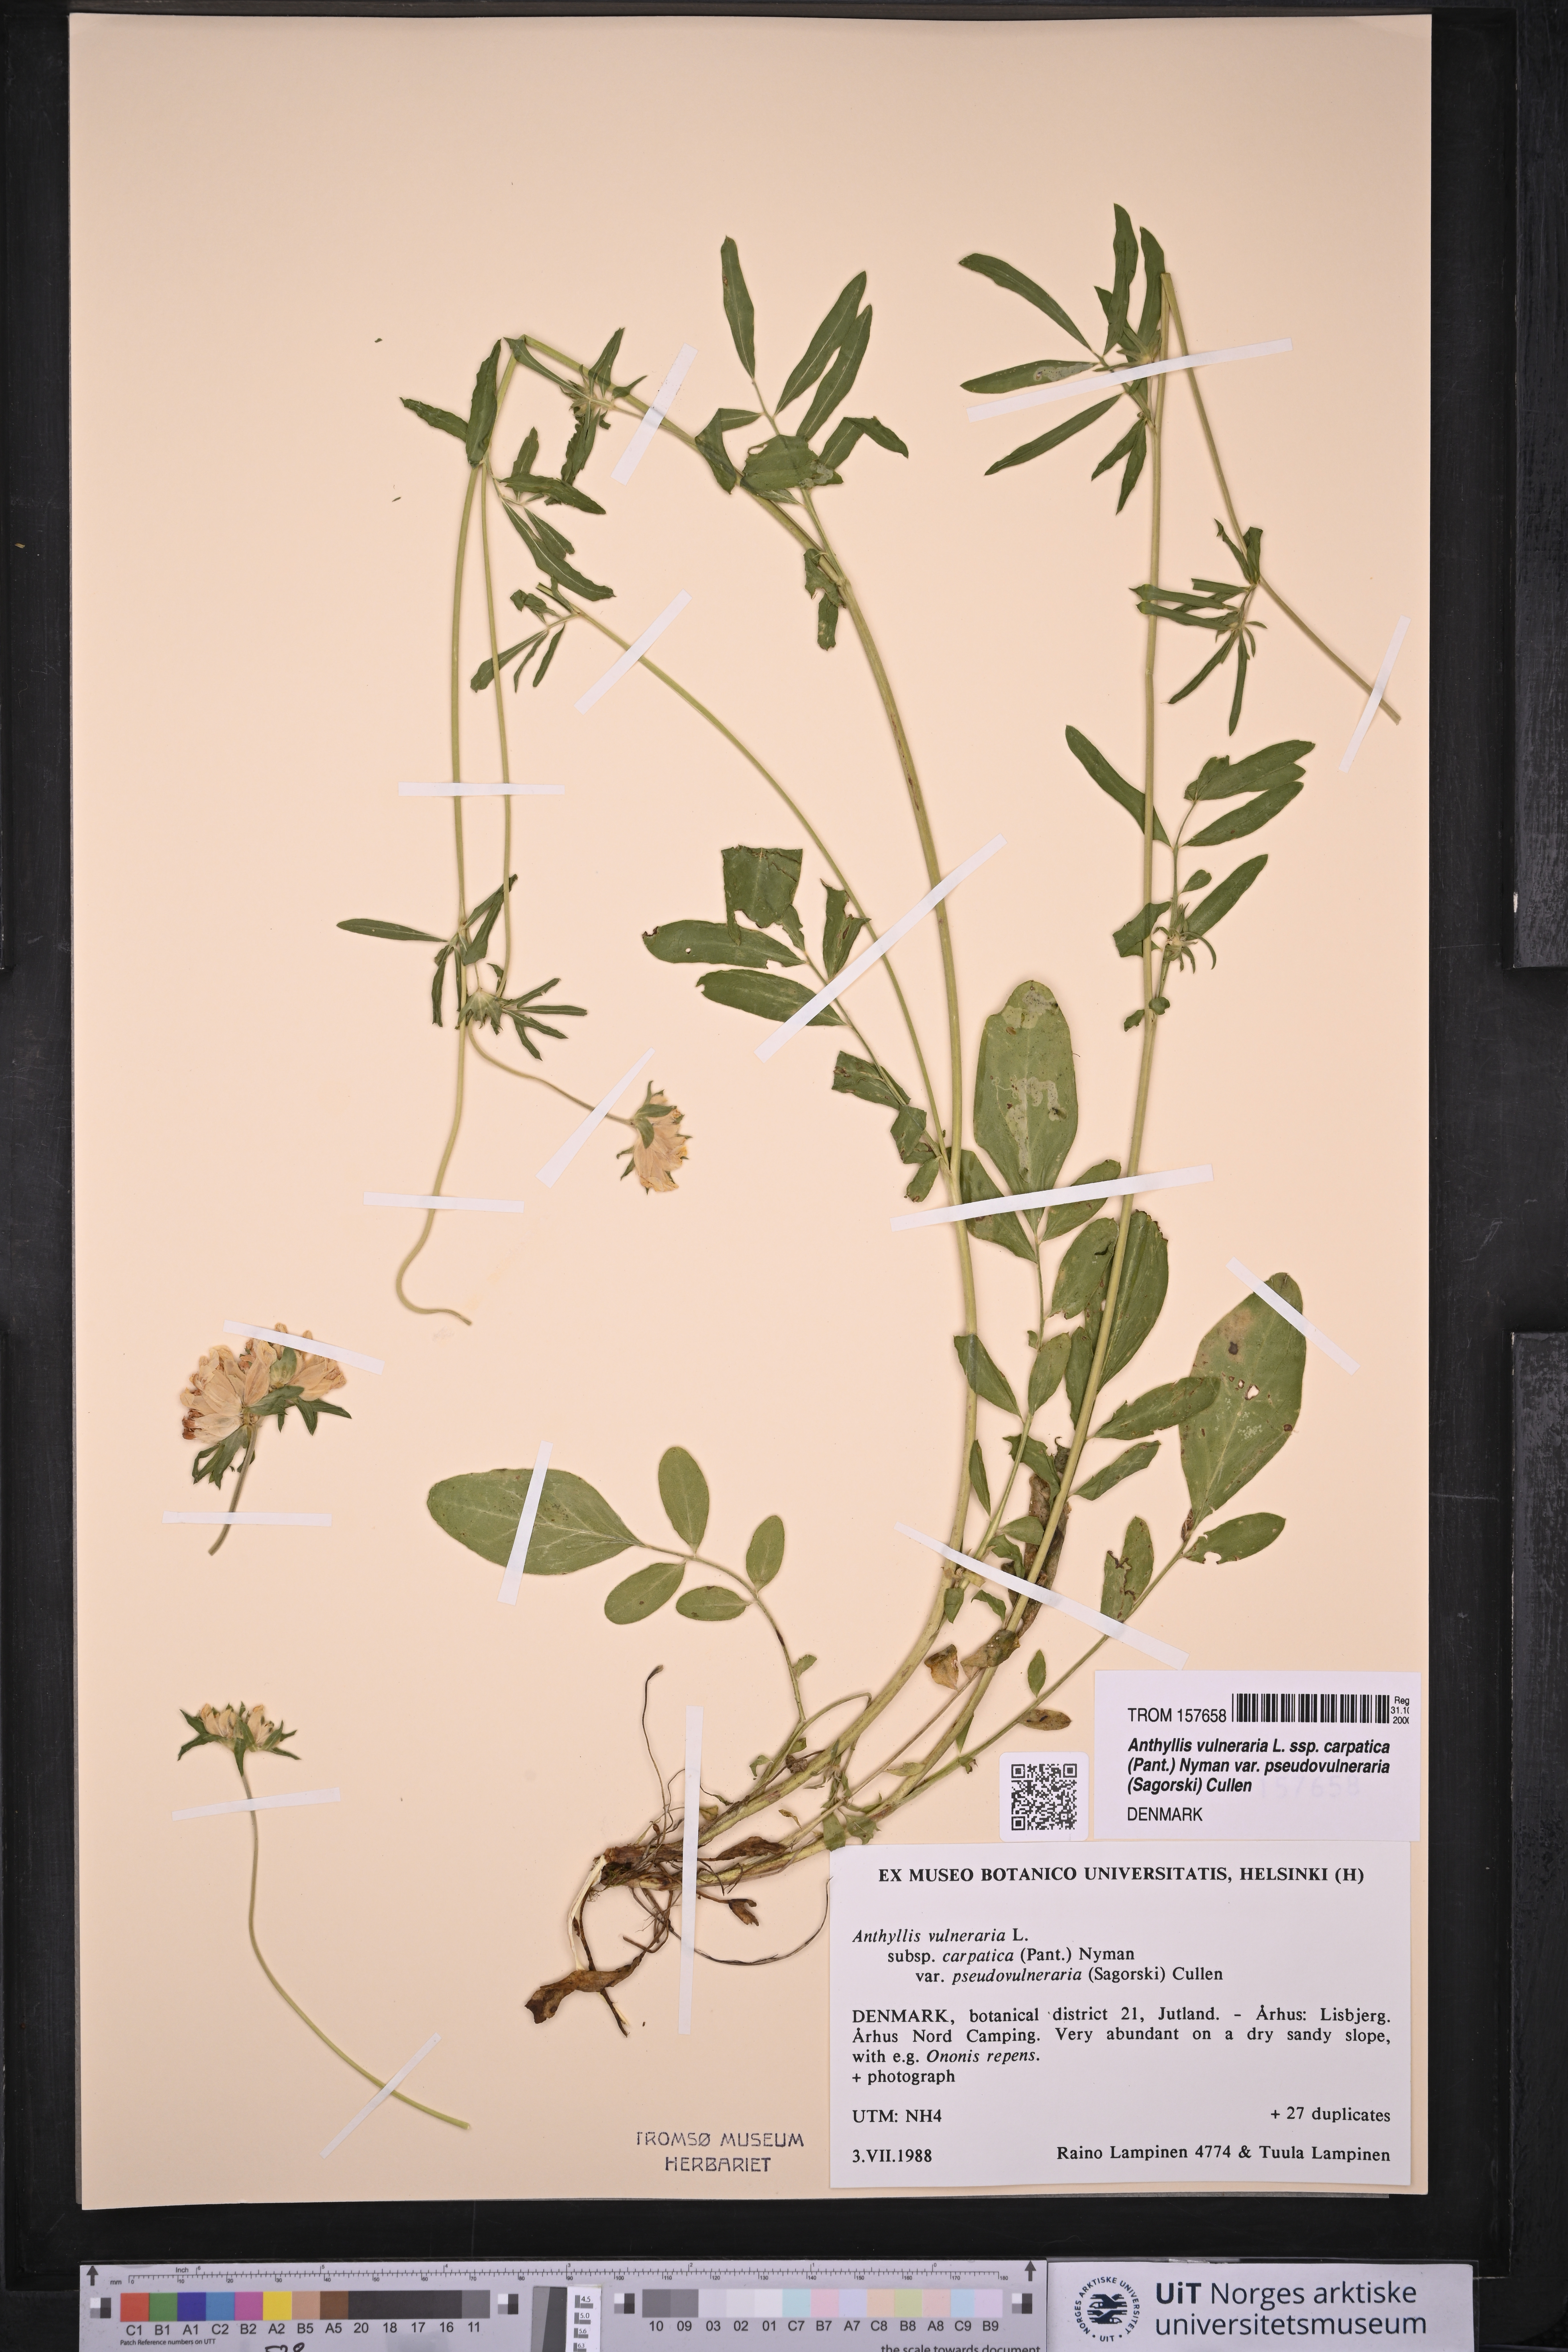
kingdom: Plantae
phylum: Tracheophyta
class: Magnoliopsida
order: Fabales
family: Fabaceae
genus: Anthyllis
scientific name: Anthyllis vulneraria
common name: Kidney vetch
